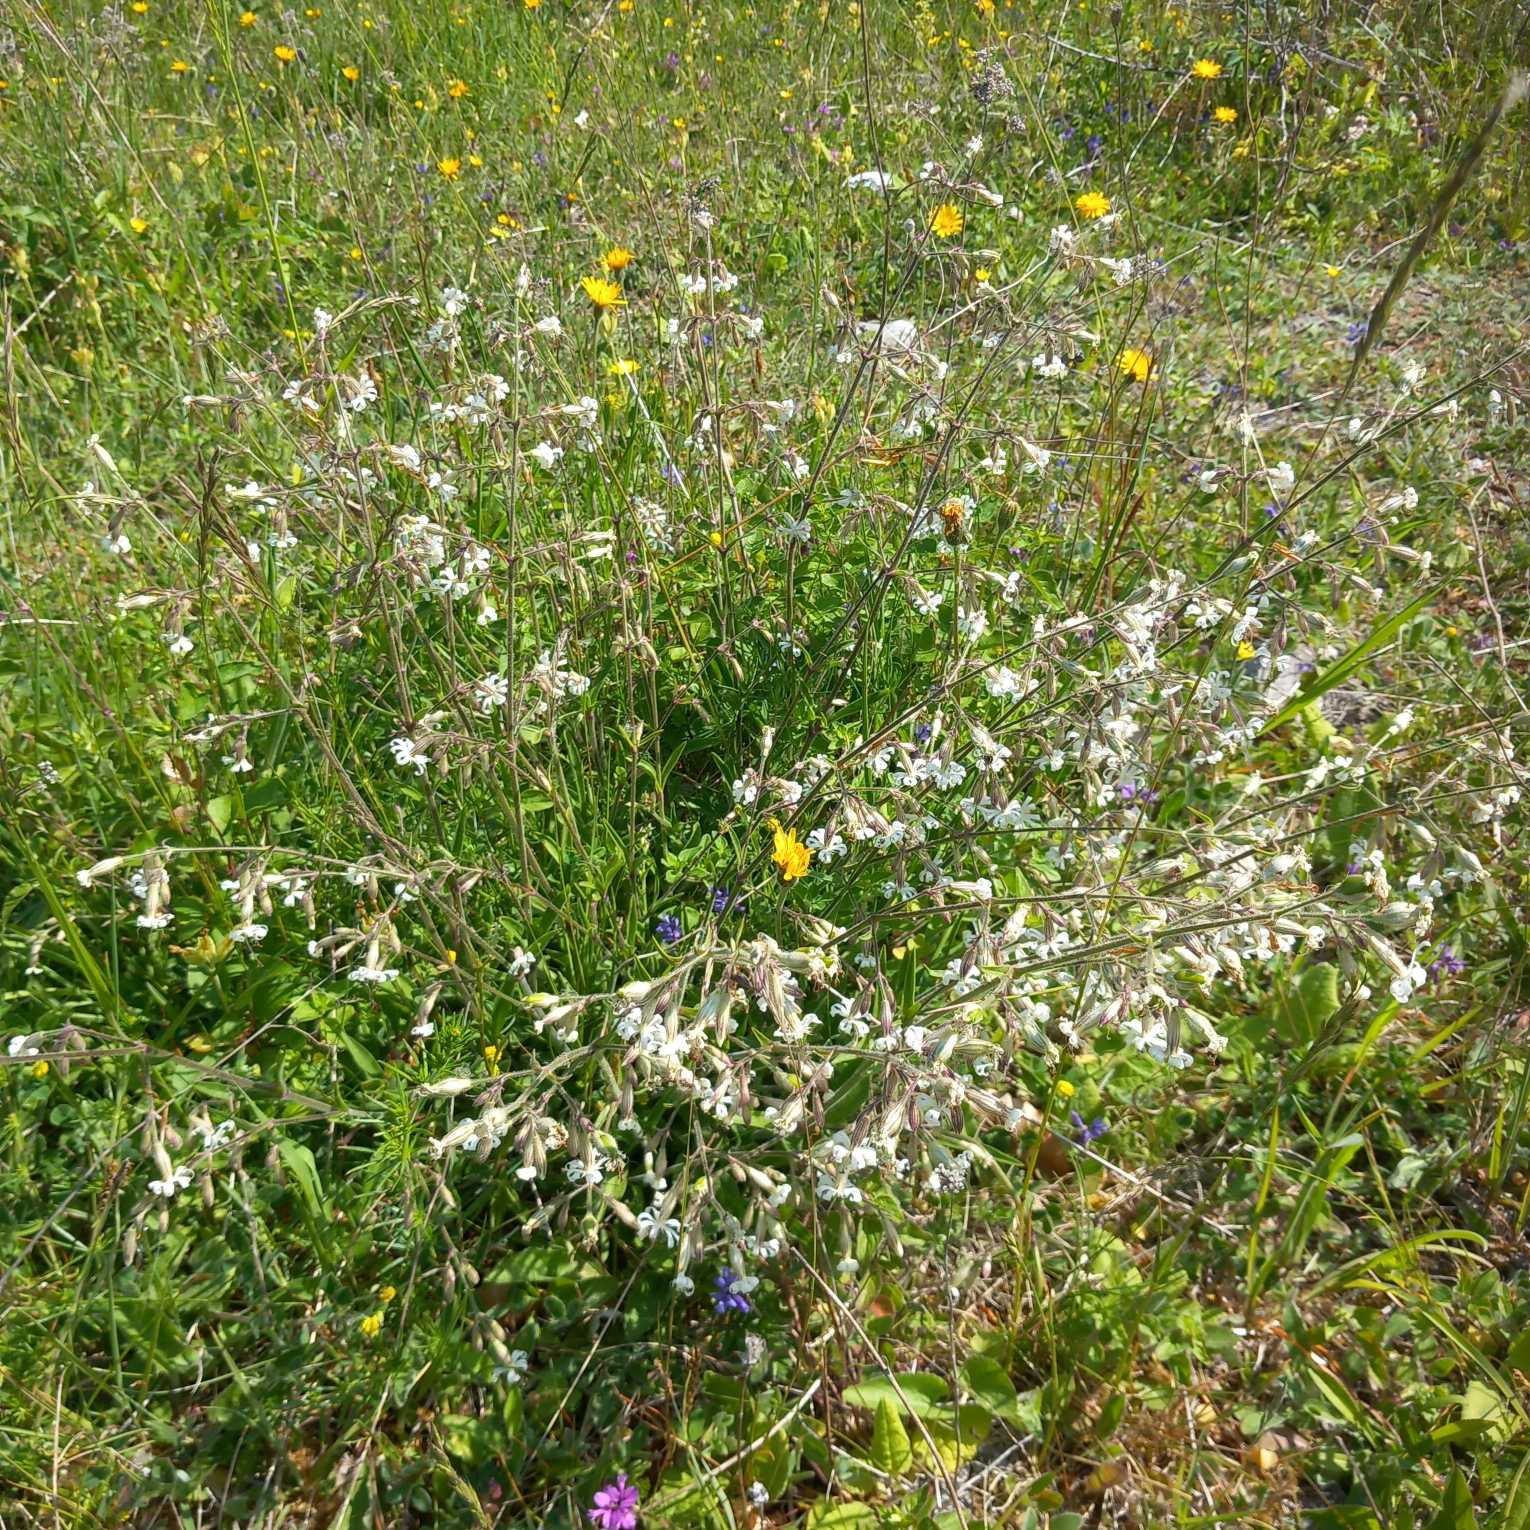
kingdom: Plantae
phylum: Tracheophyta
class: Magnoliopsida
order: Caryophyllales
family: Caryophyllaceae
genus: Silene
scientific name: Silene nutans
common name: Nikkende limurt
